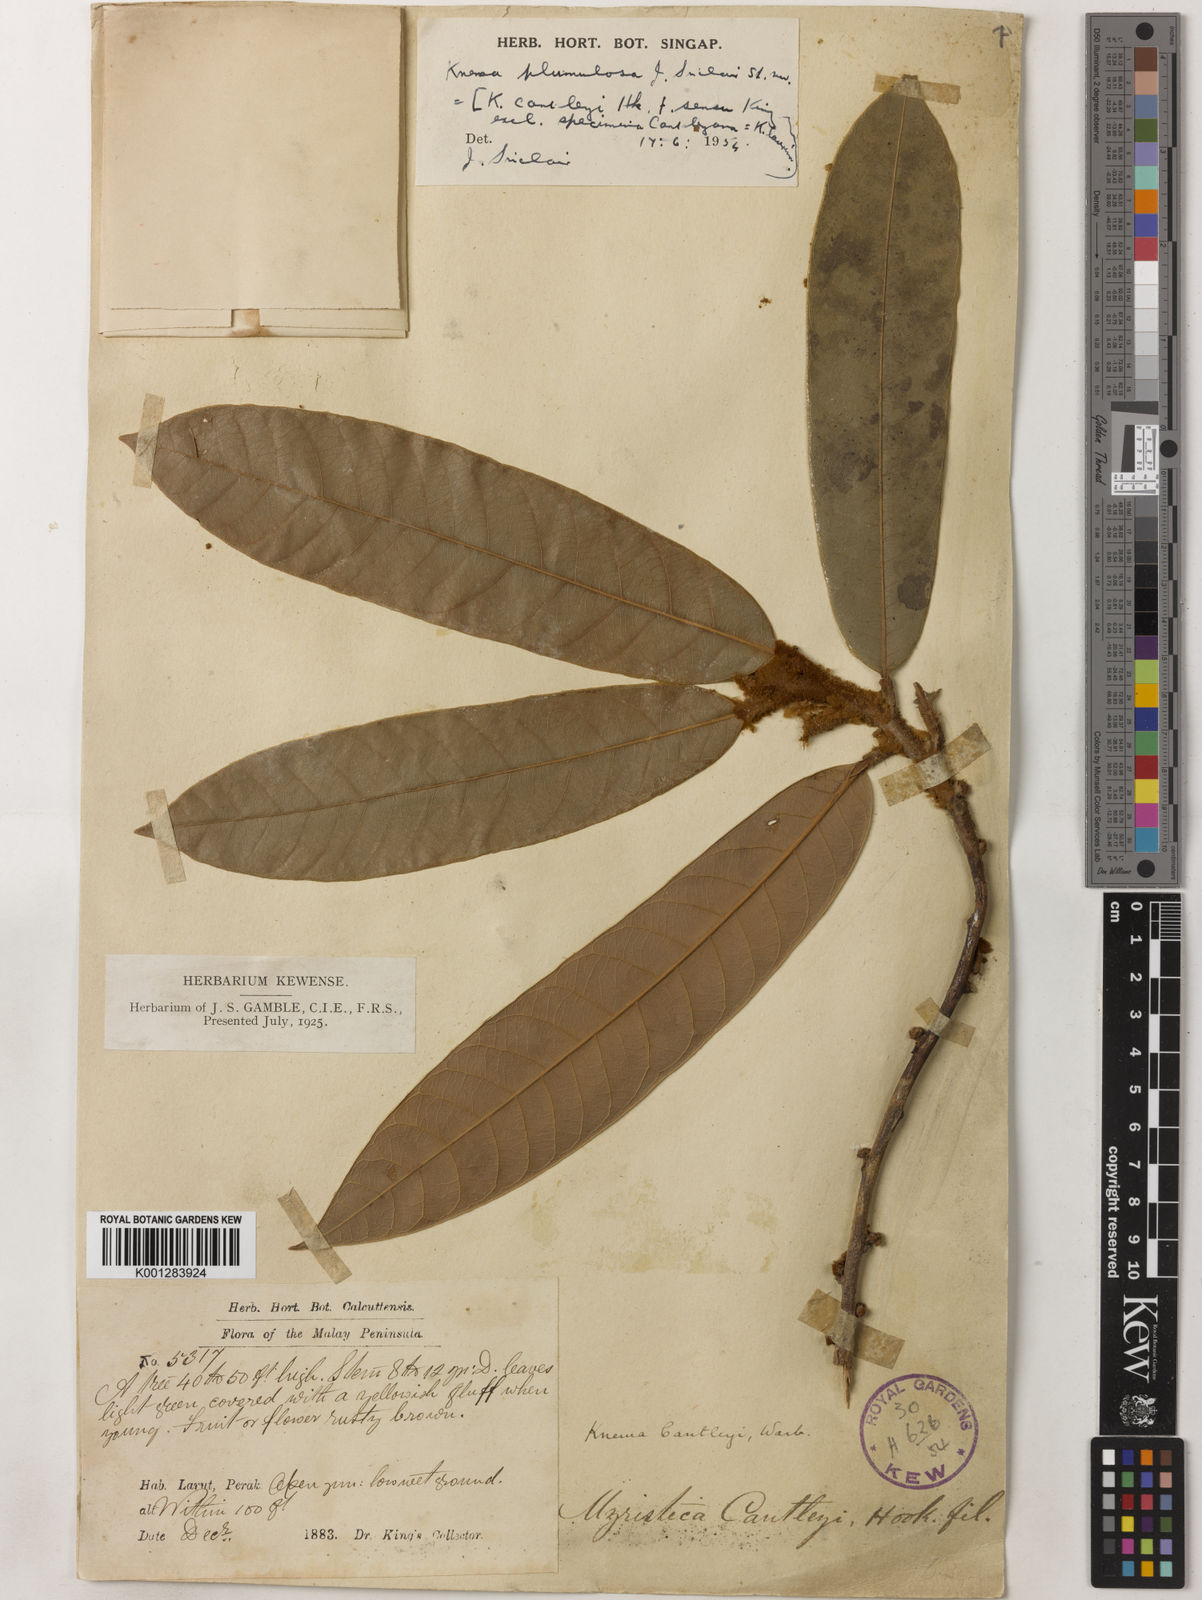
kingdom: Plantae
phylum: Tracheophyta
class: Magnoliopsida
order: Magnoliales
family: Myristicaceae
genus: Knema
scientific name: Knema plumulosa
